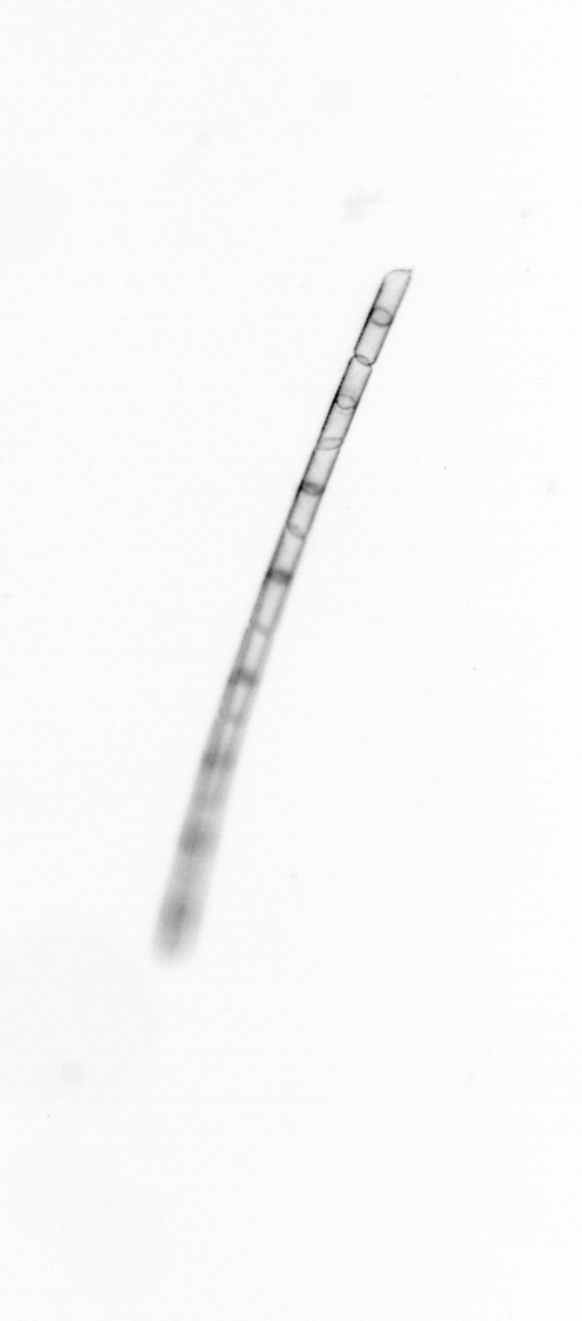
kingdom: Chromista
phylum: Ochrophyta
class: Bacillariophyceae
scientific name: Bacillariophyceae
